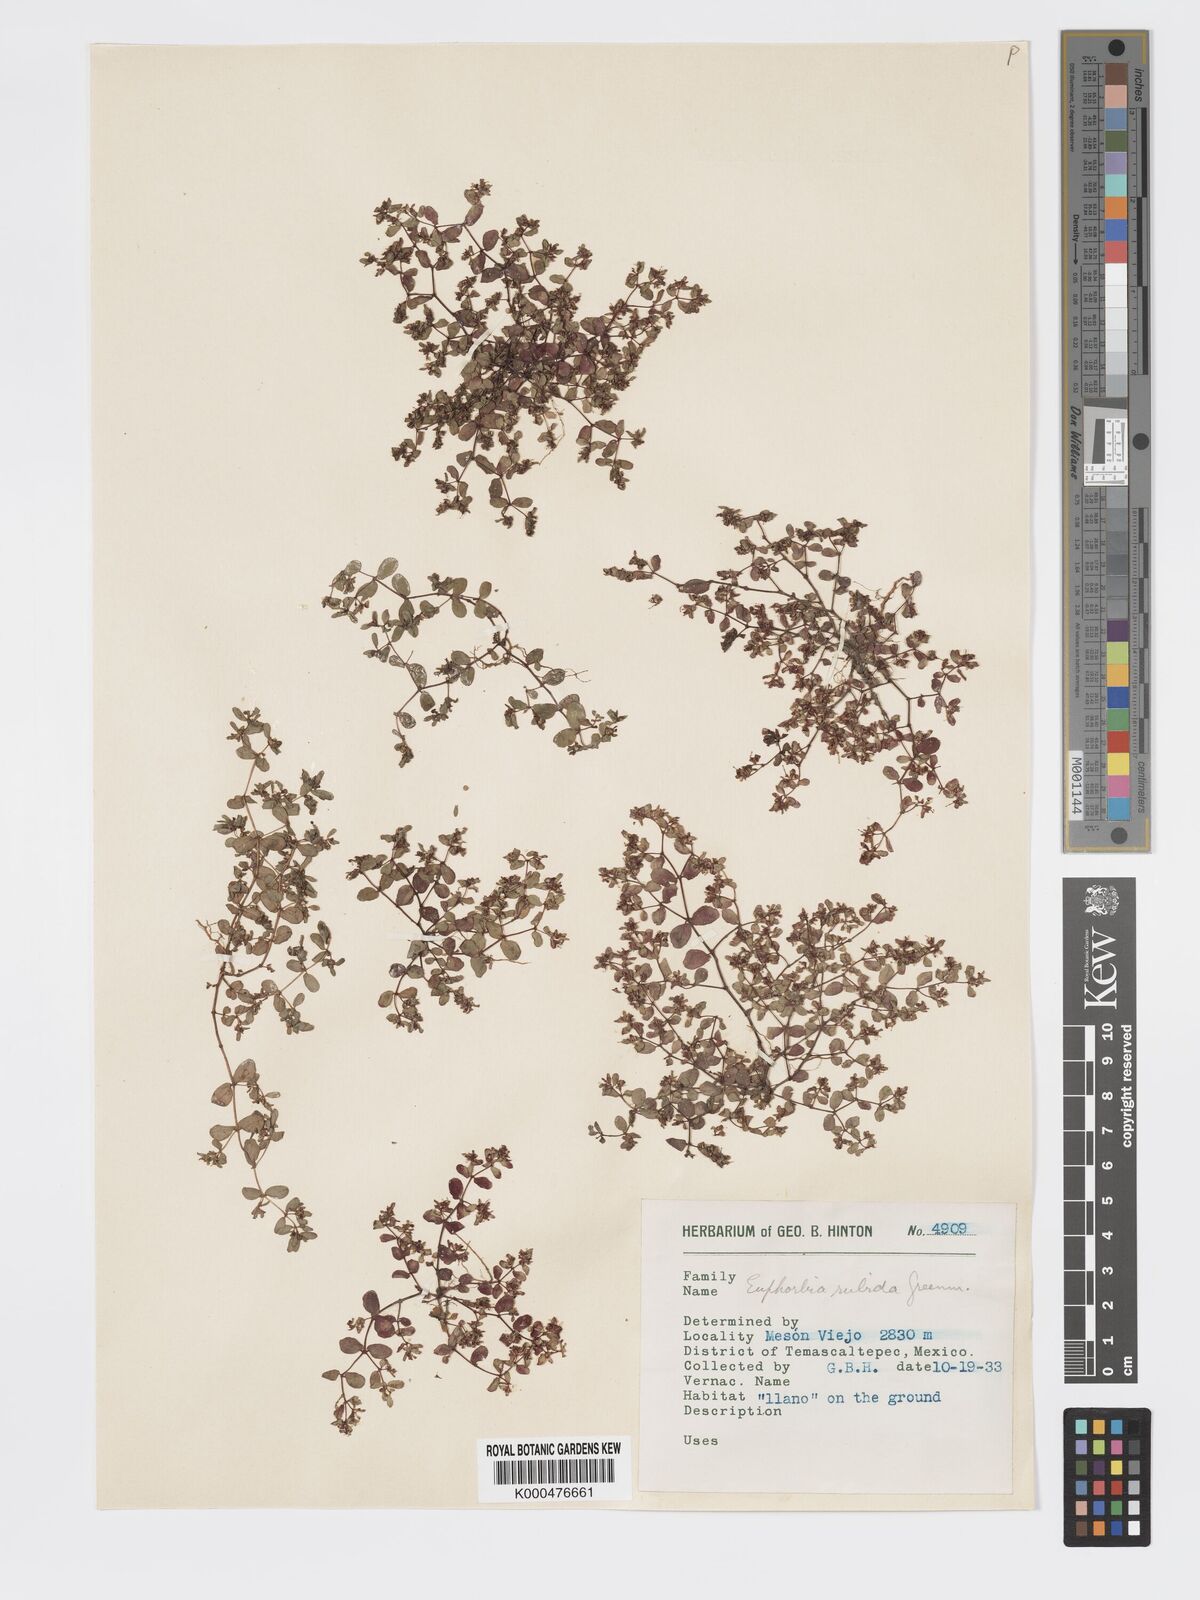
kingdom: Plantae
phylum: Tracheophyta
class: Magnoliopsida
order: Malpighiales
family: Euphorbiaceae
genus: Euphorbia
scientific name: Euphorbia anychioides
